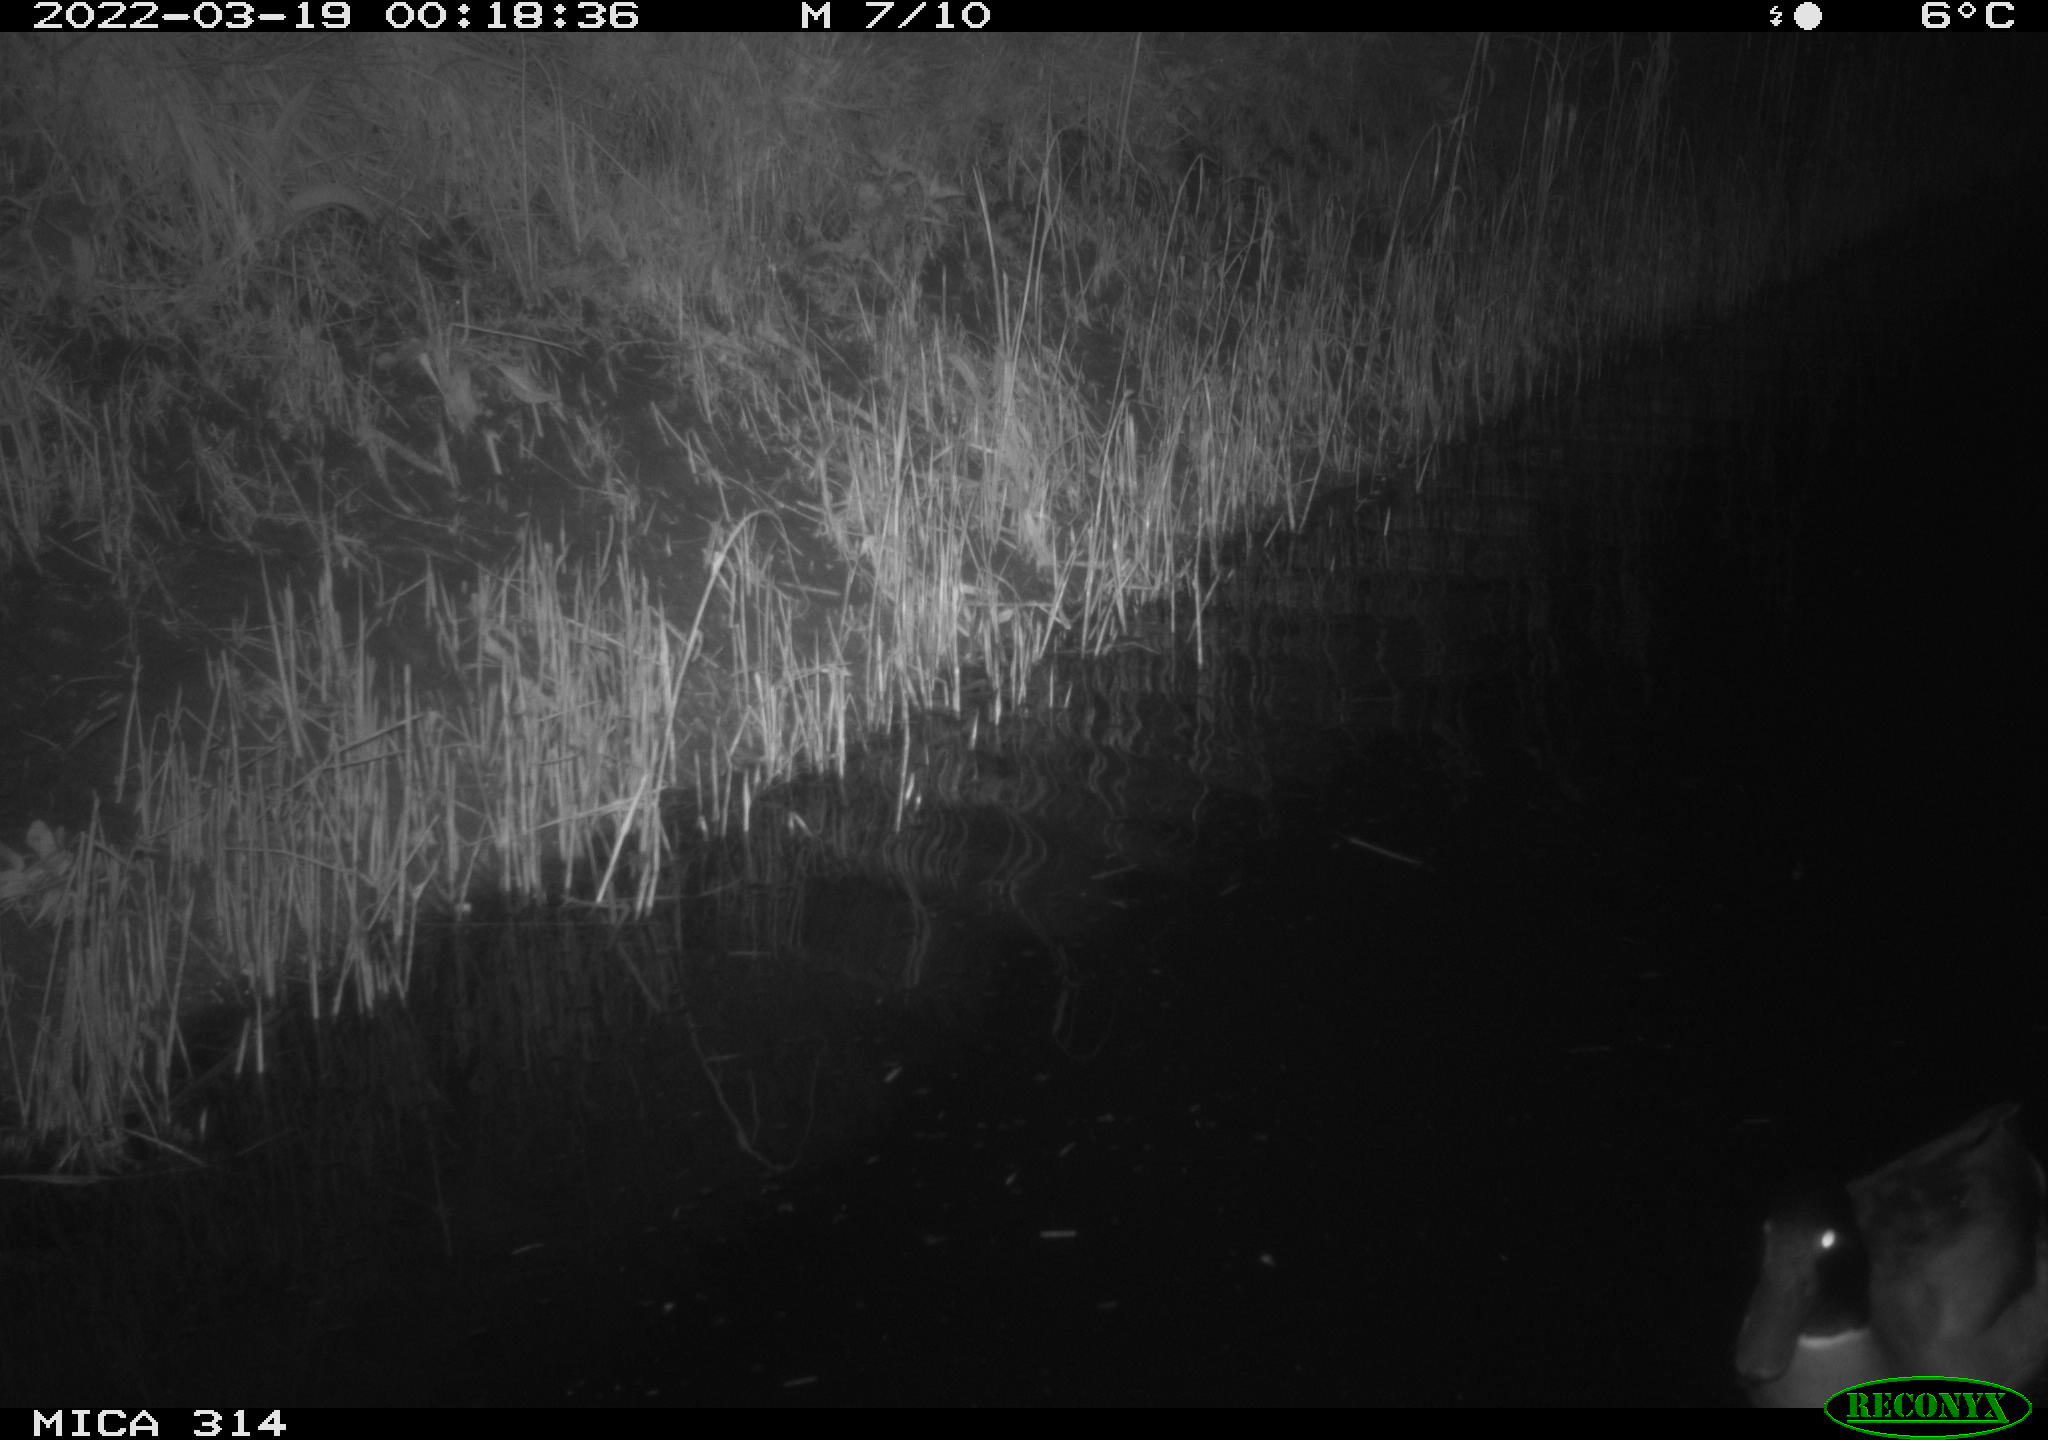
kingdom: Animalia
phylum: Chordata
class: Aves
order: Anseriformes
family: Anatidae
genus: Anas
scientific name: Anas platyrhynchos
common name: Mallard
